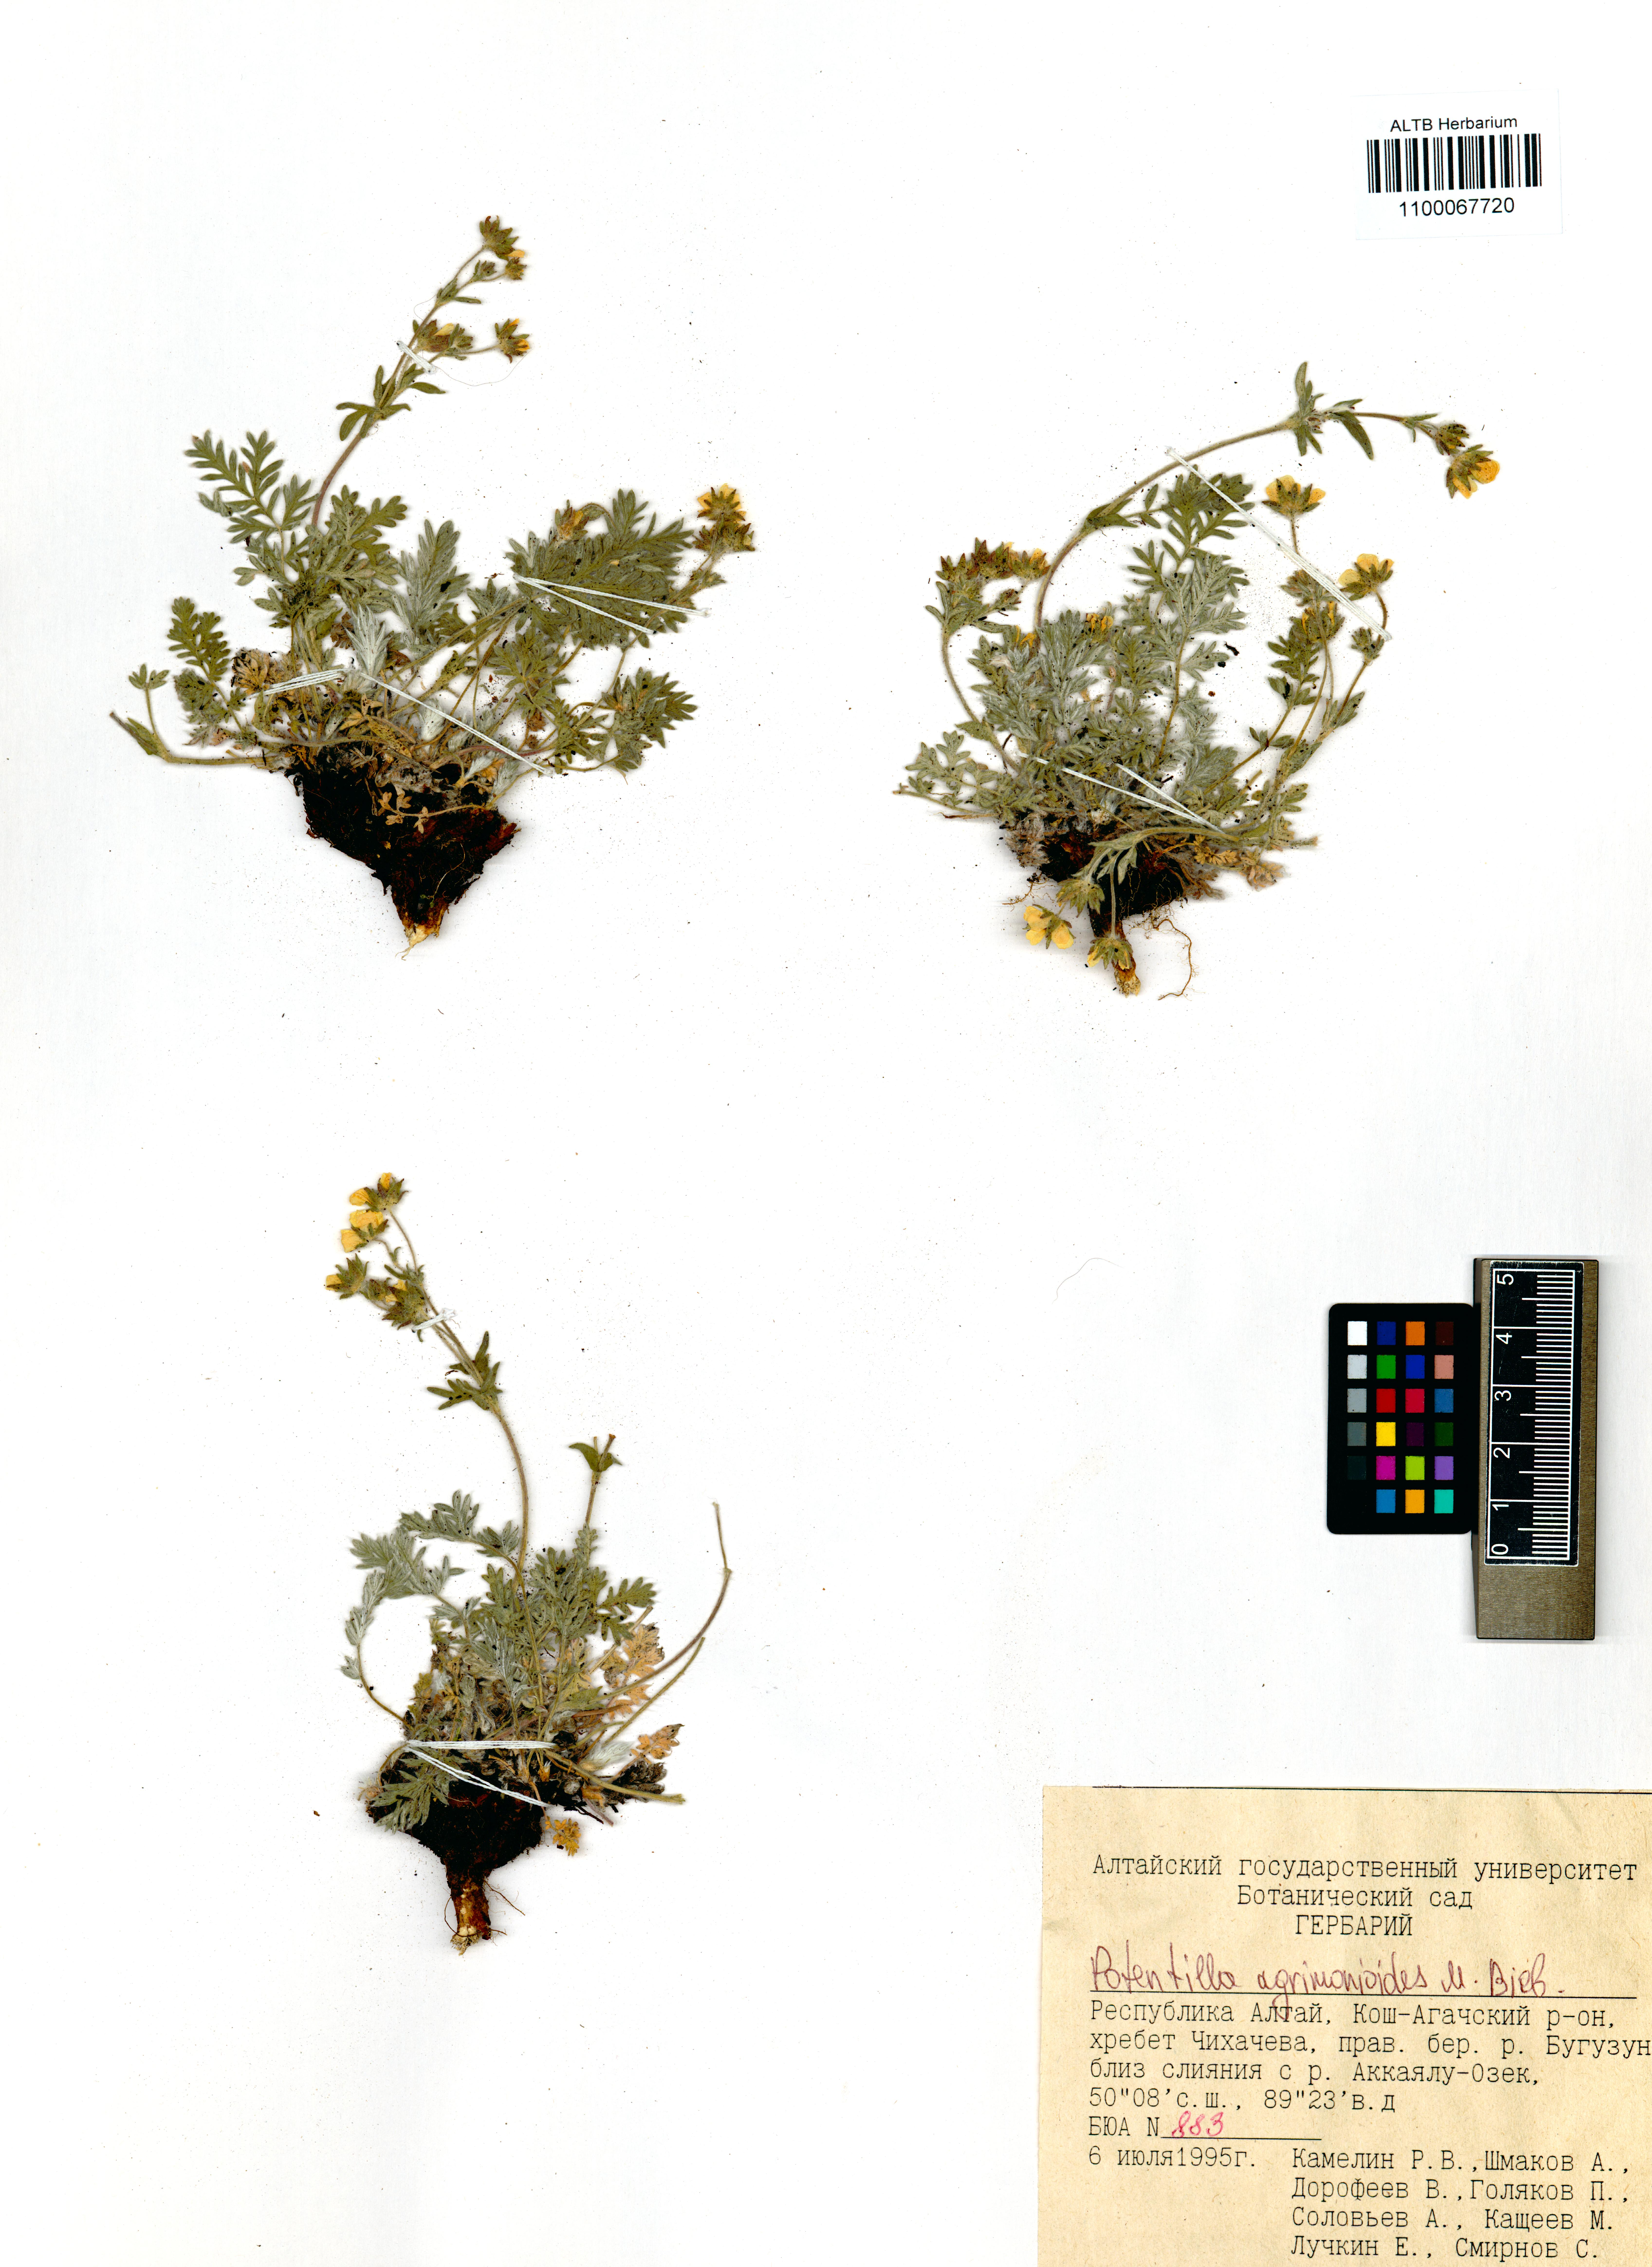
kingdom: Plantae
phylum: Tracheophyta
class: Magnoliopsida
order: Rosales
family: Rosaceae
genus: Potentilla
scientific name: Potentilla agrimonioides
